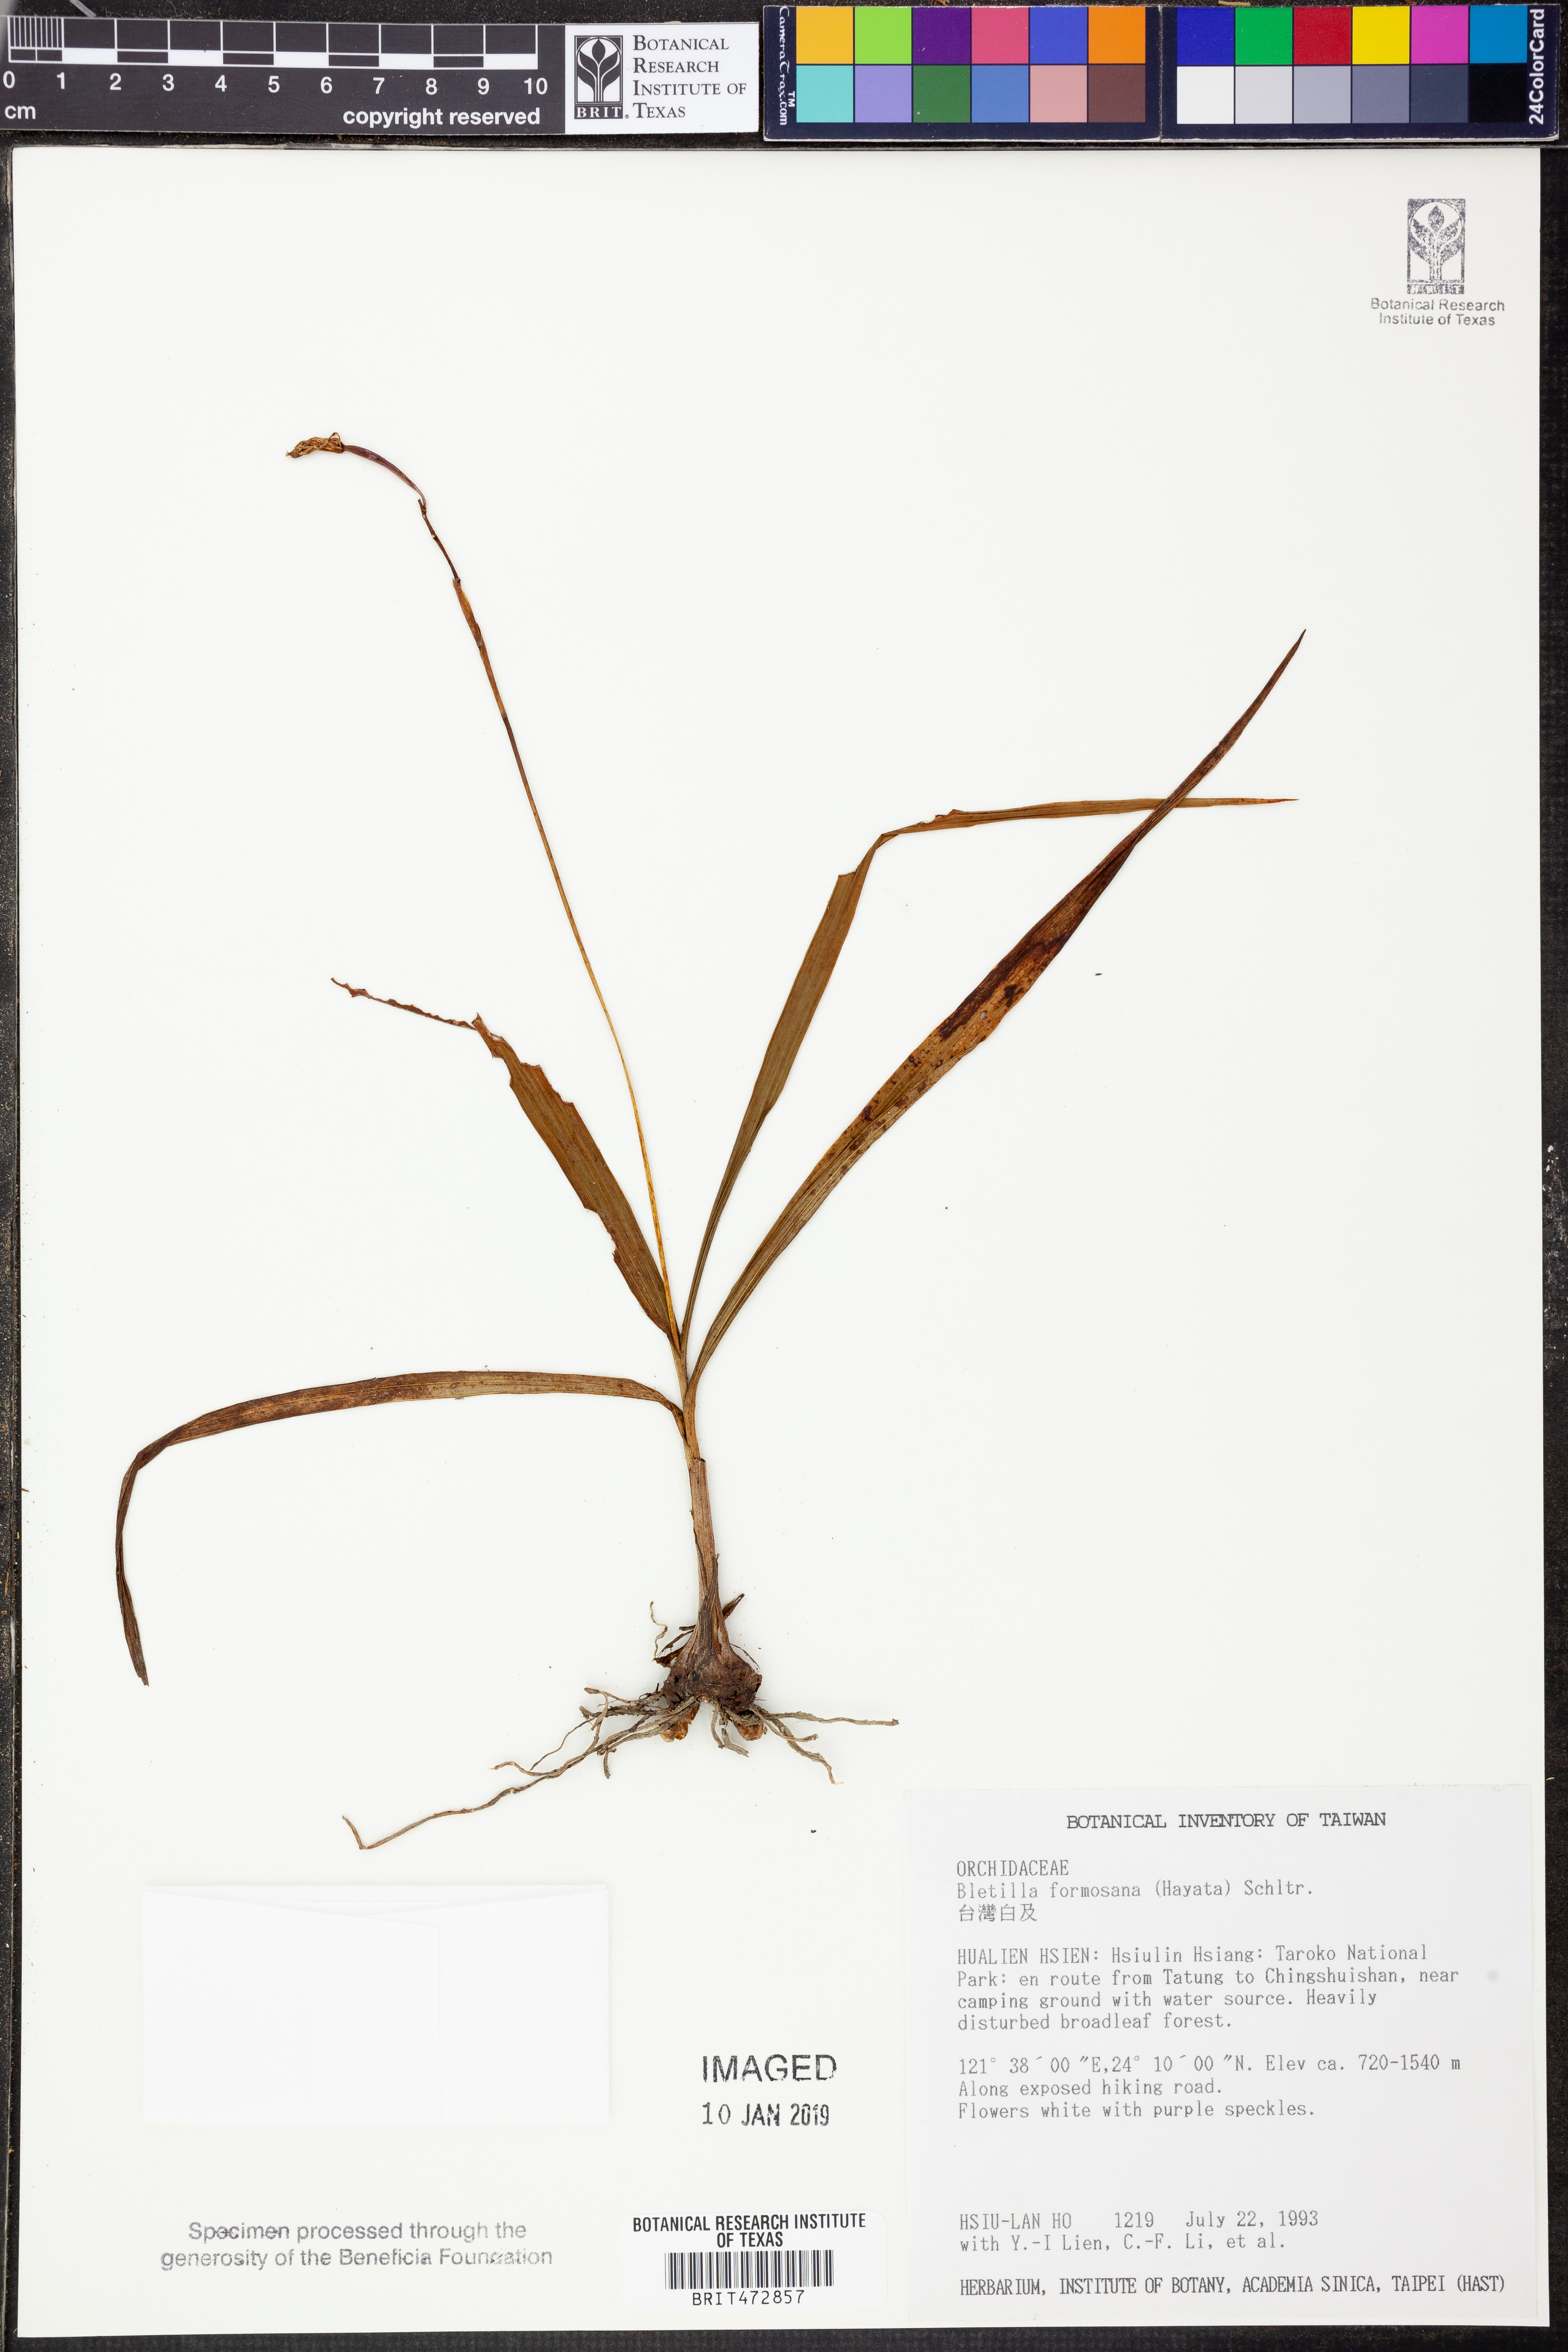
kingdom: Plantae
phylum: Tracheophyta
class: Liliopsida
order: Asparagales
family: Orchidaceae
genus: Bletilla
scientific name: Bletilla formosana
